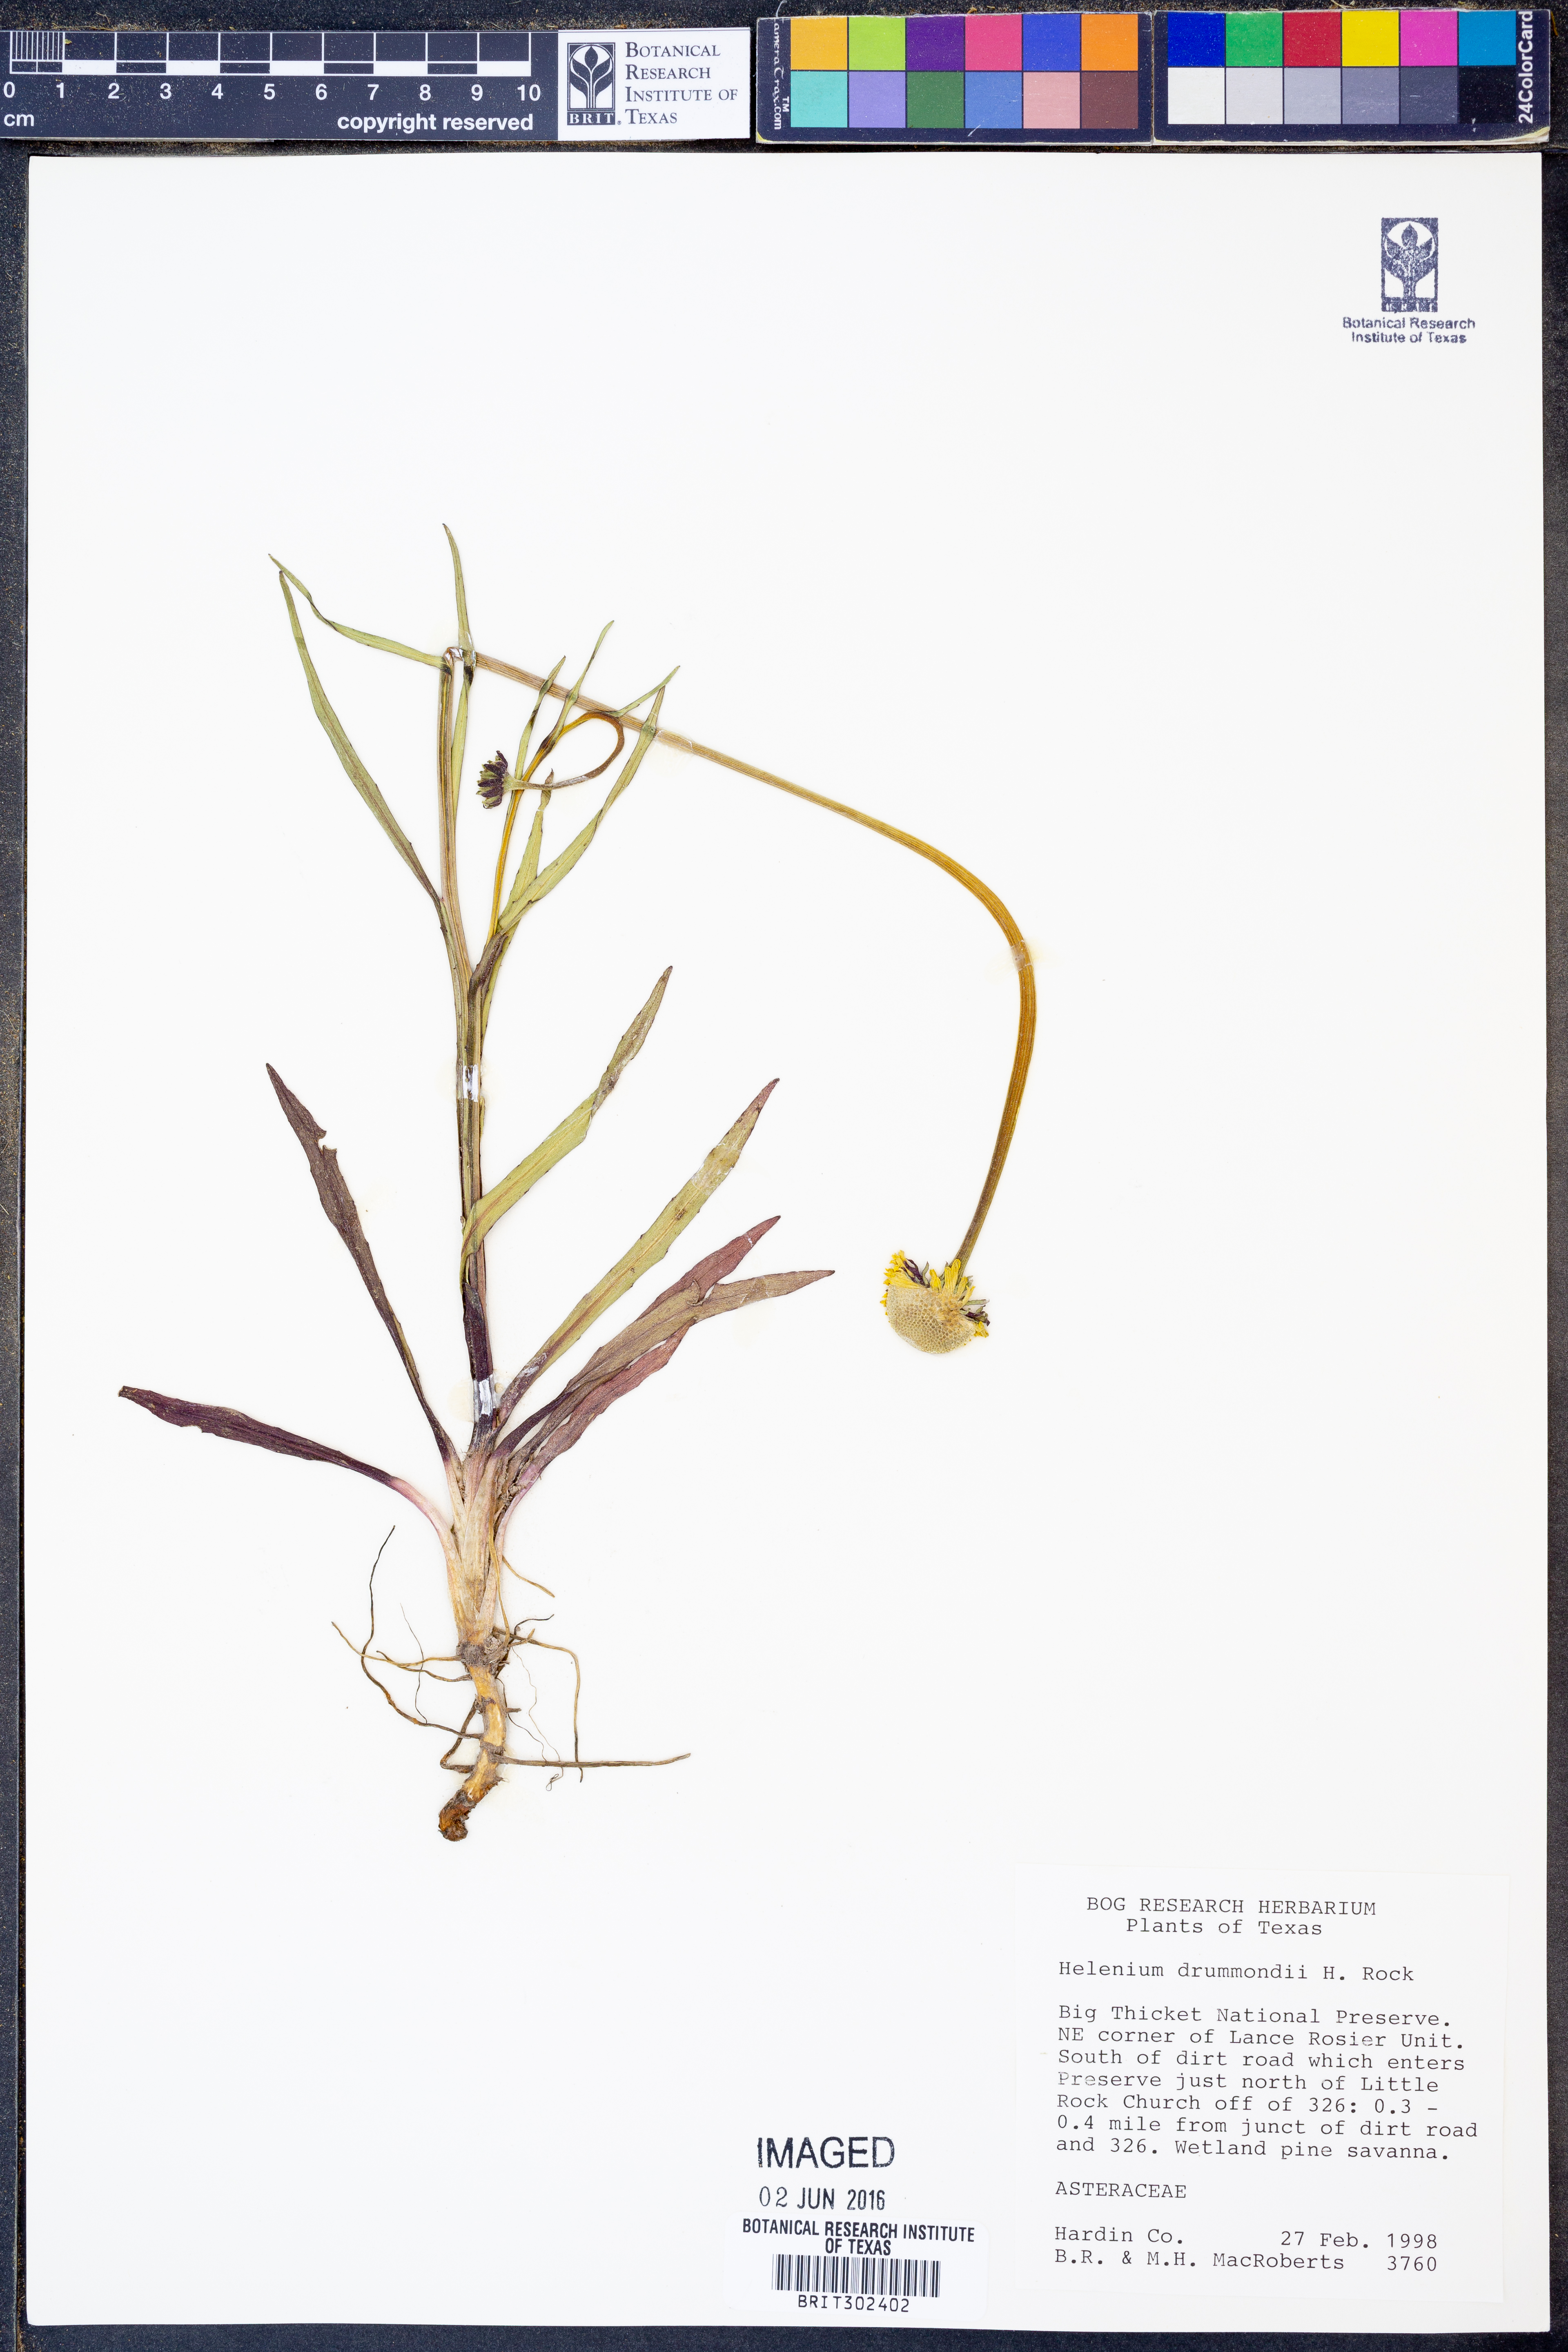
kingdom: Plantae
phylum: Tracheophyta
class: Magnoliopsida
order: Asterales
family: Asteraceae
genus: Helenium
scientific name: Helenium drummondii
